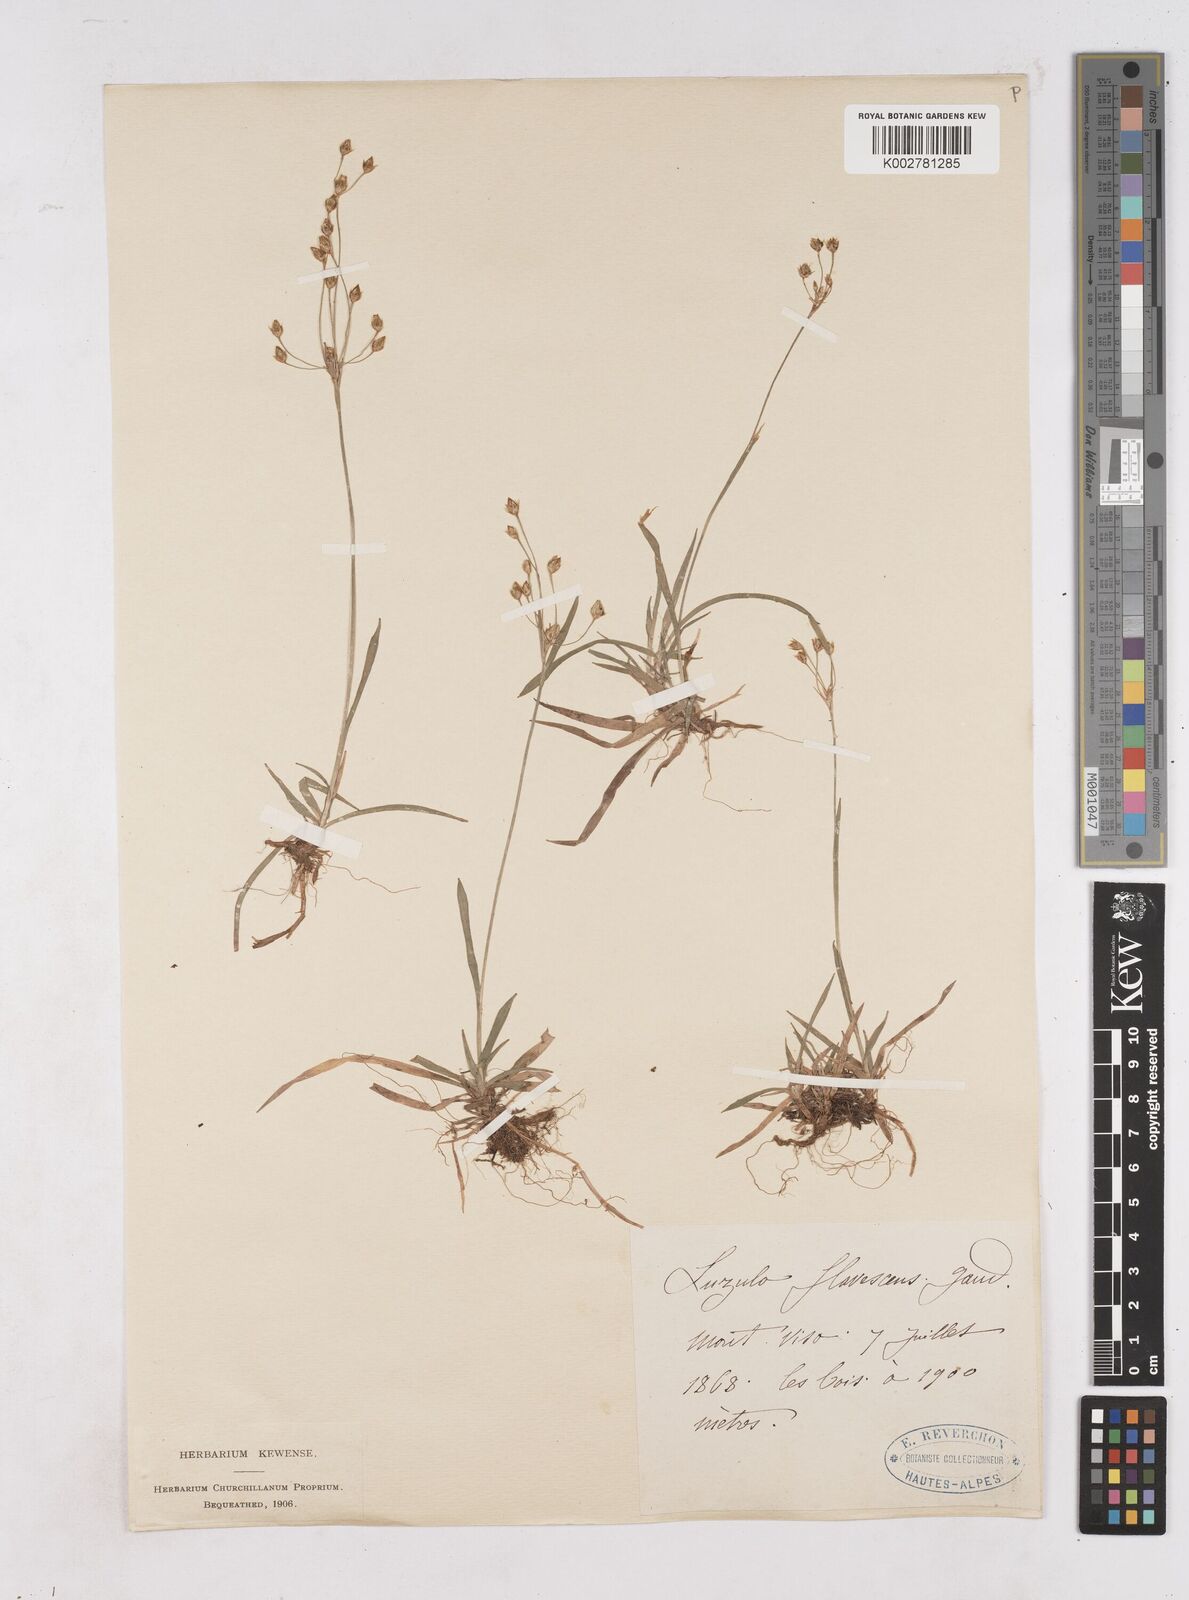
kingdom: Plantae
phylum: Tracheophyta
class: Liliopsida
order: Poales
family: Juncaceae
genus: Luzula
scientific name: Luzula luzulina
